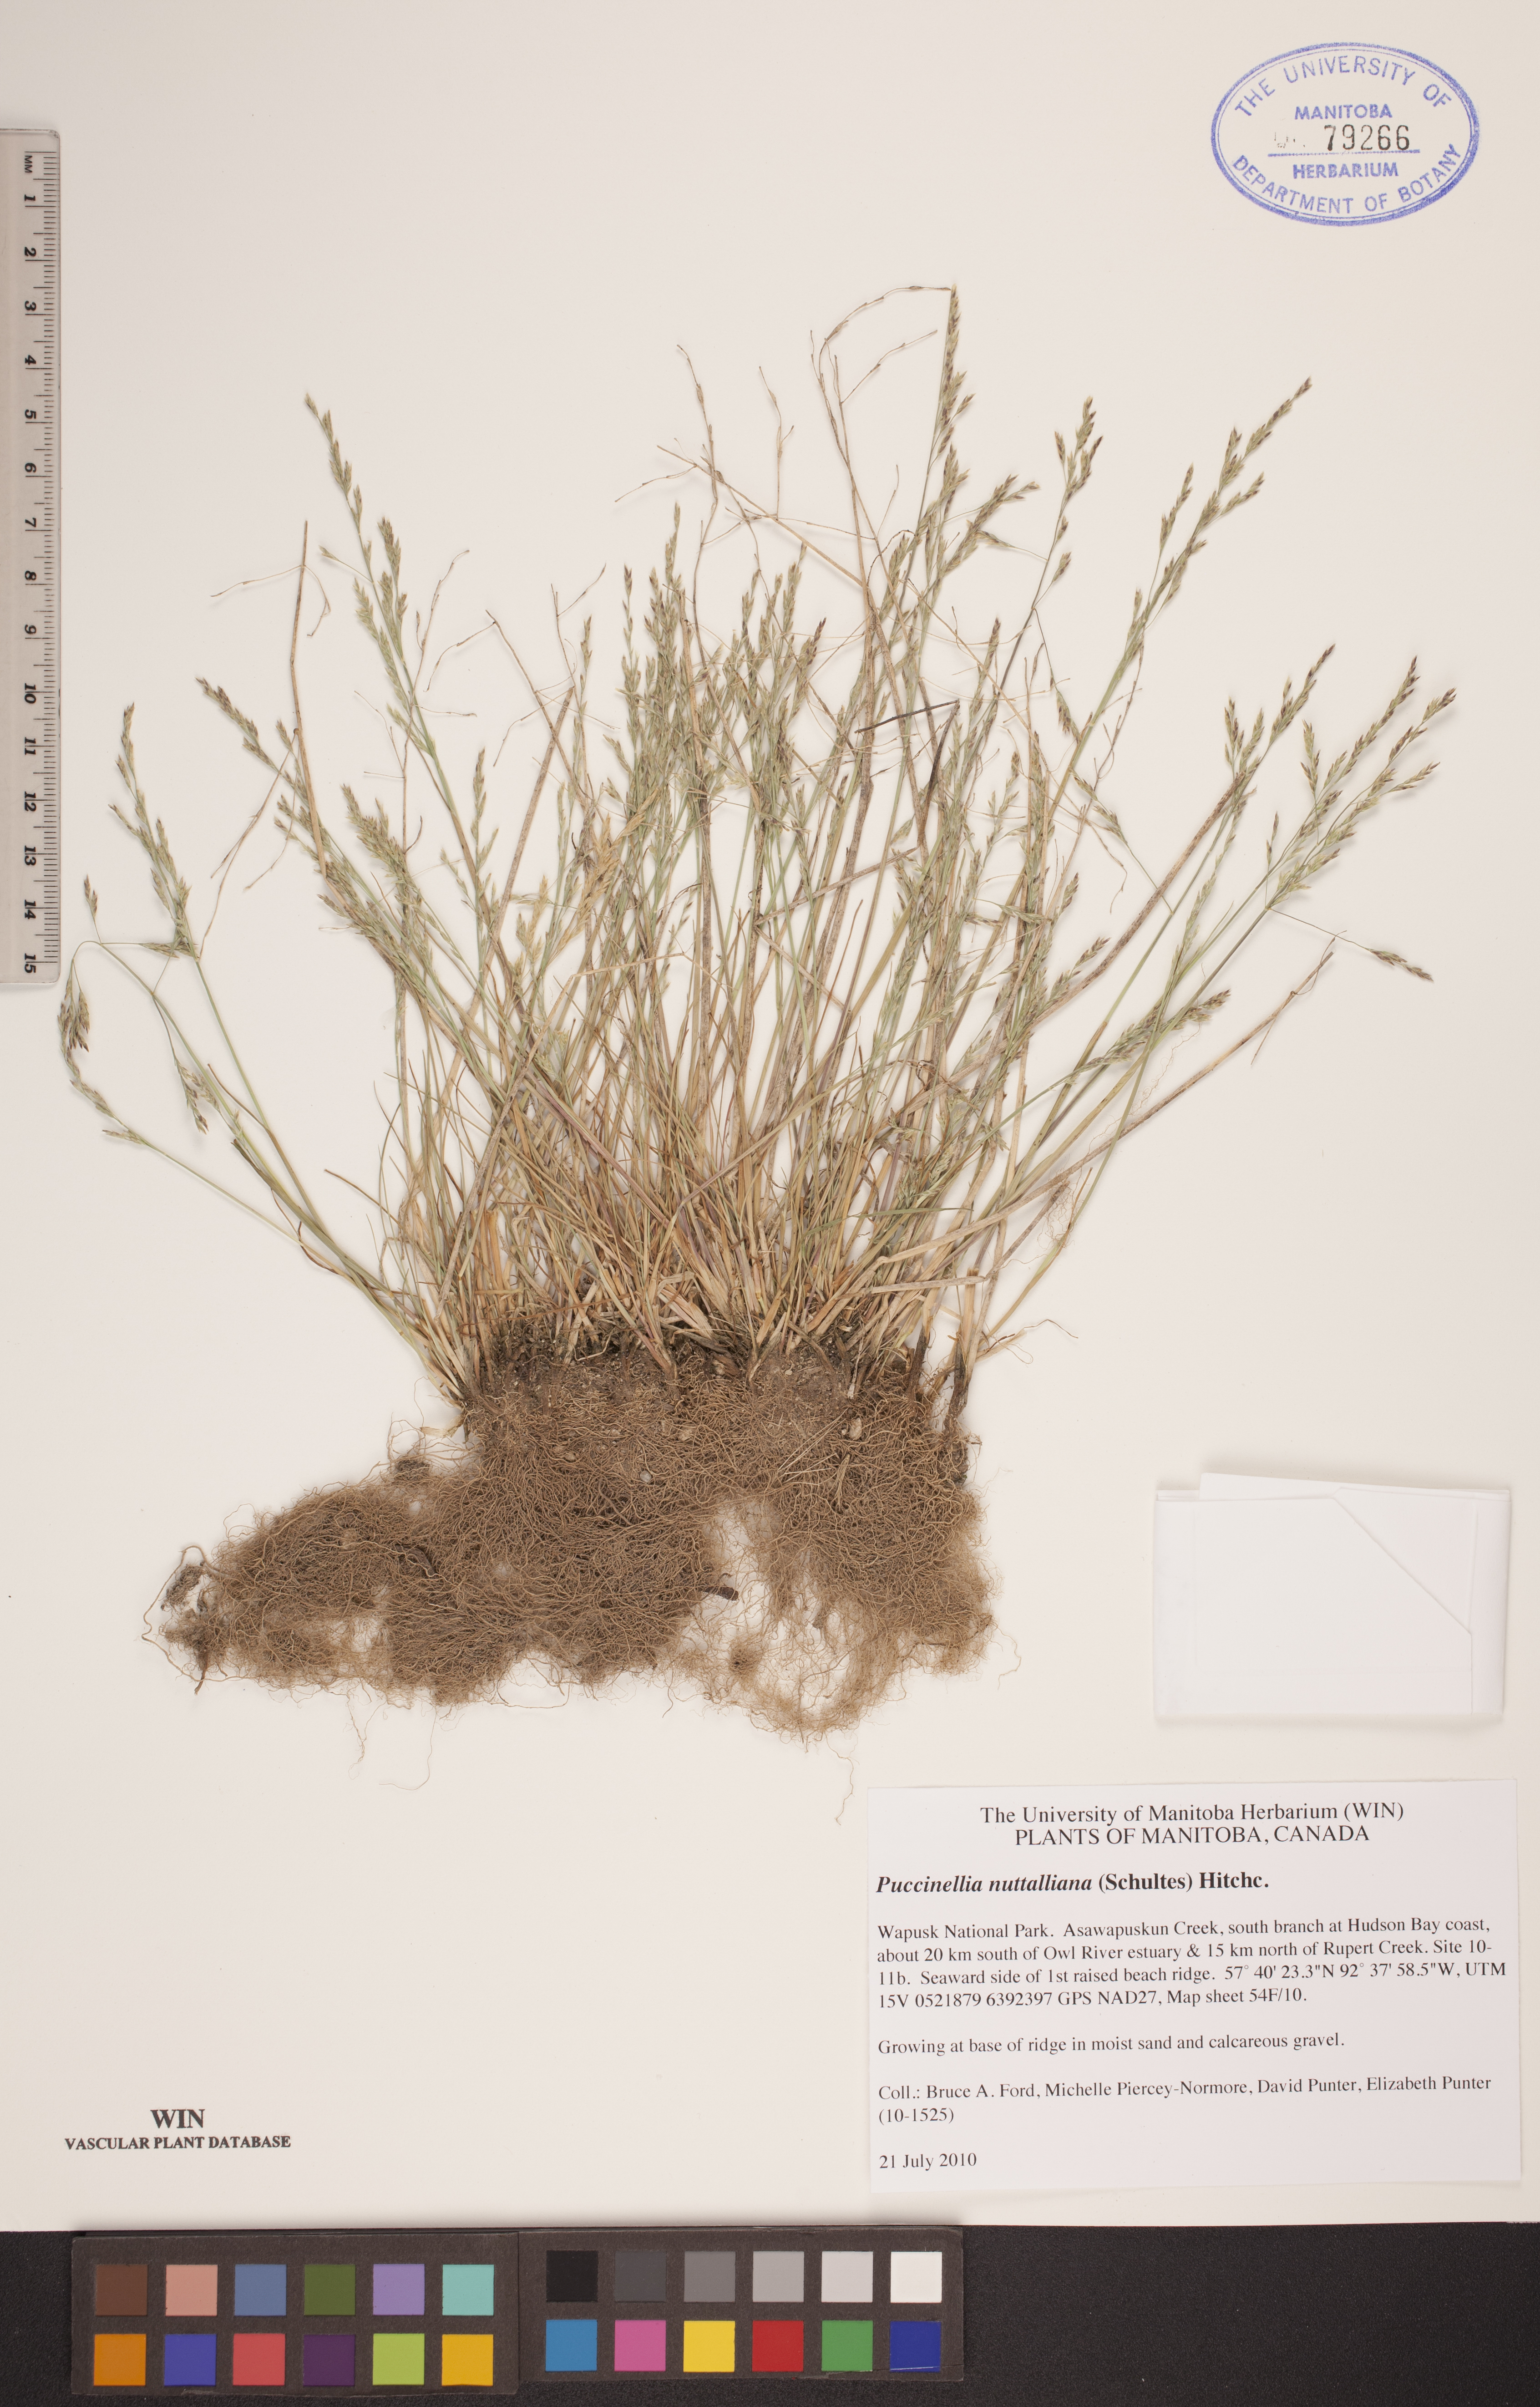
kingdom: Plantae
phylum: Tracheophyta
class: Liliopsida
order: Poales
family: Poaceae
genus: Puccinellia
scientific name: Puccinellia nuttalliana
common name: Nuttall's alkali grass
